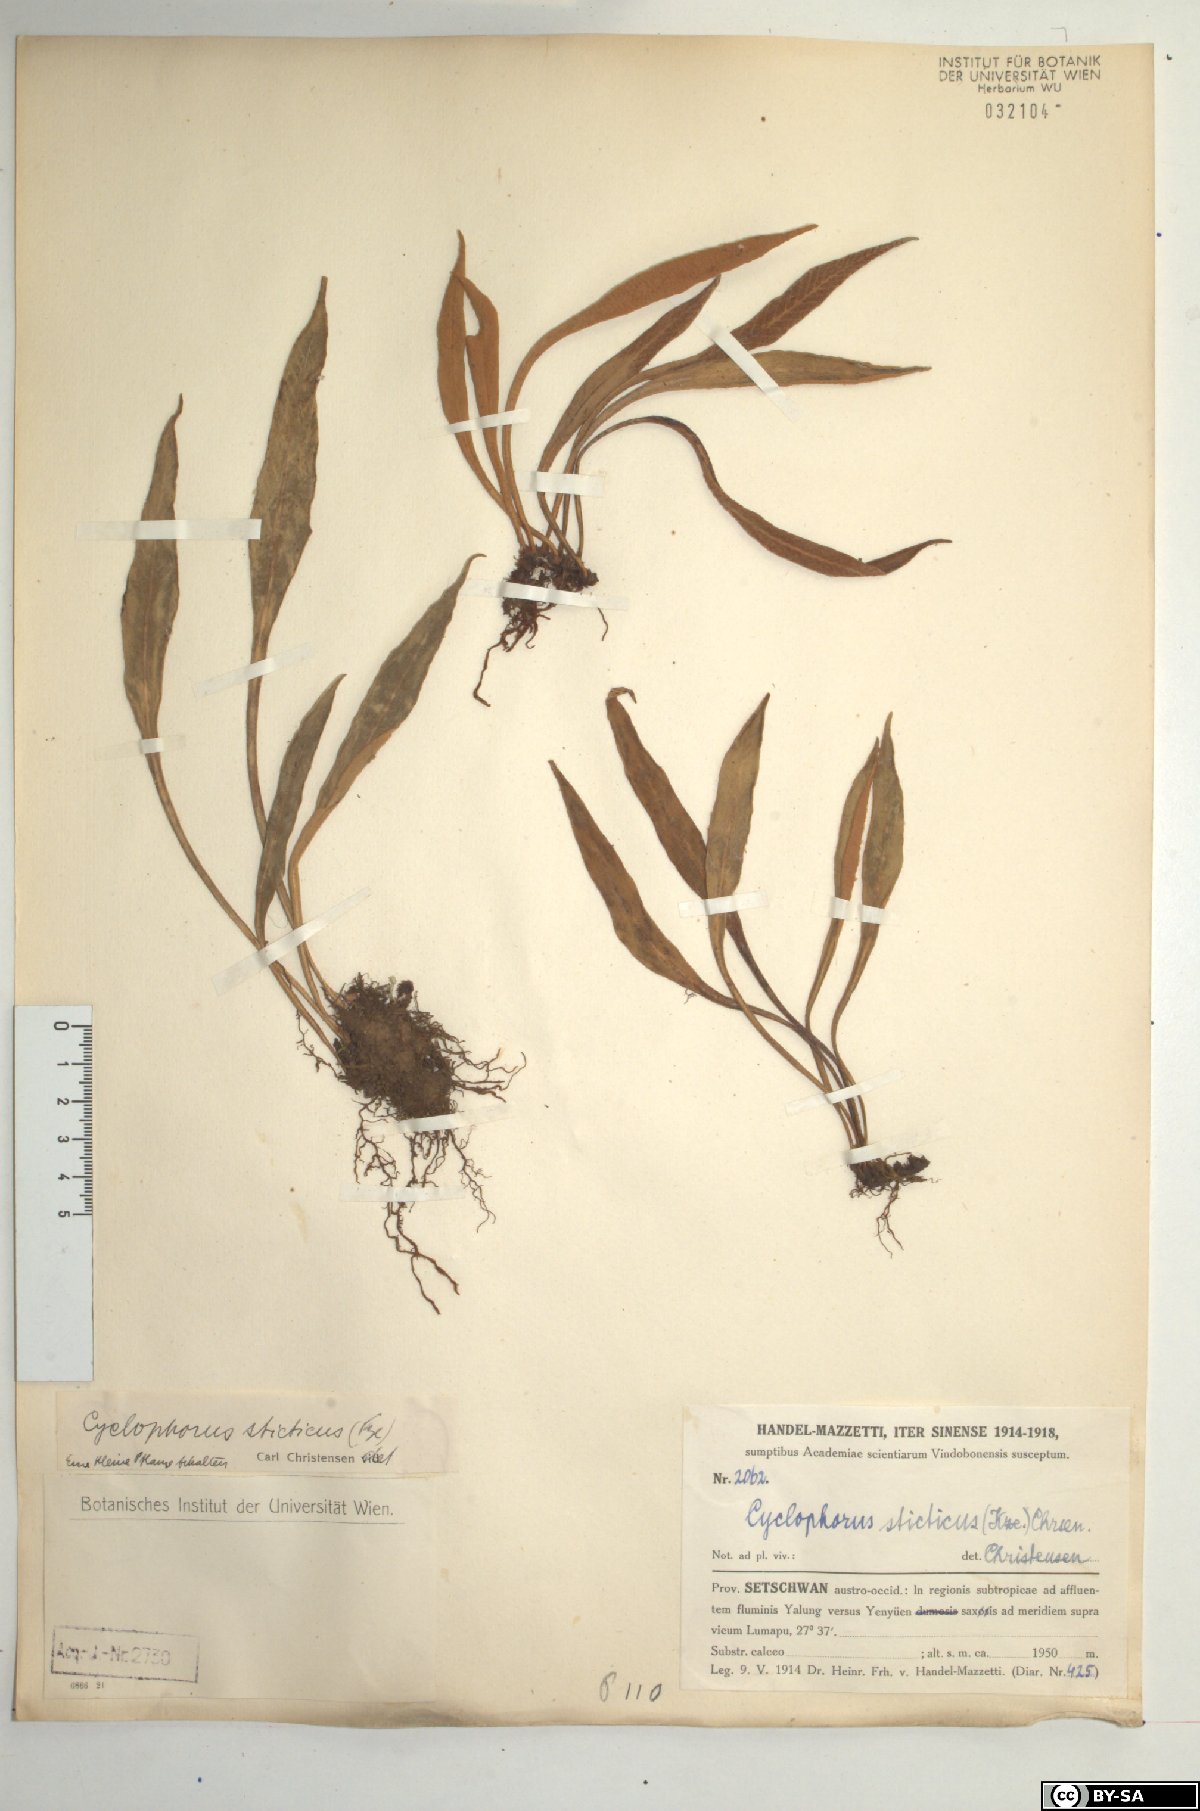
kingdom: Plantae
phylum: Tracheophyta
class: Polypodiopsida
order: Polypodiales
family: Polypodiaceae
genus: Pyrrosia
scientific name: Pyrrosia porosa
